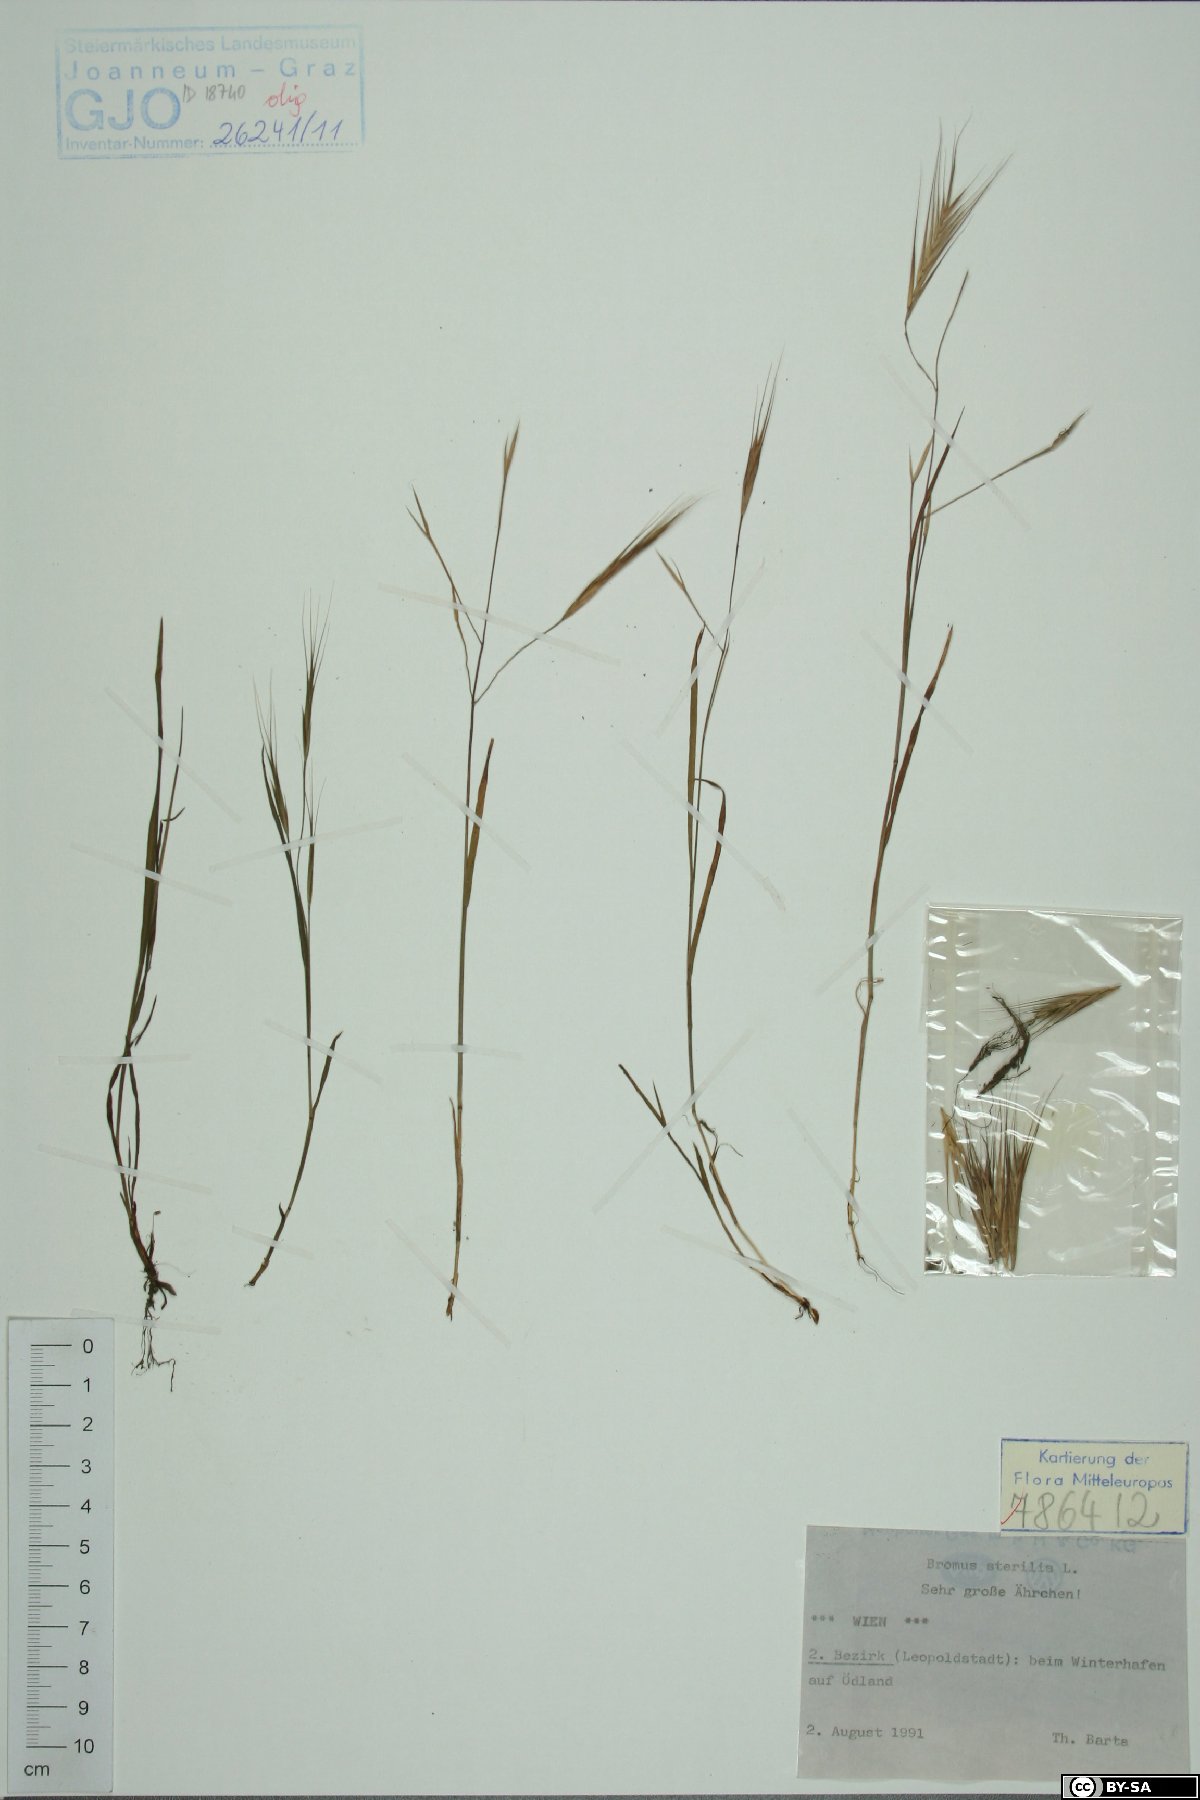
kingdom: Plantae
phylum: Tracheophyta
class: Liliopsida
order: Poales
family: Poaceae
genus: Bromus
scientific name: Bromus sterilis
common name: Poverty brome
